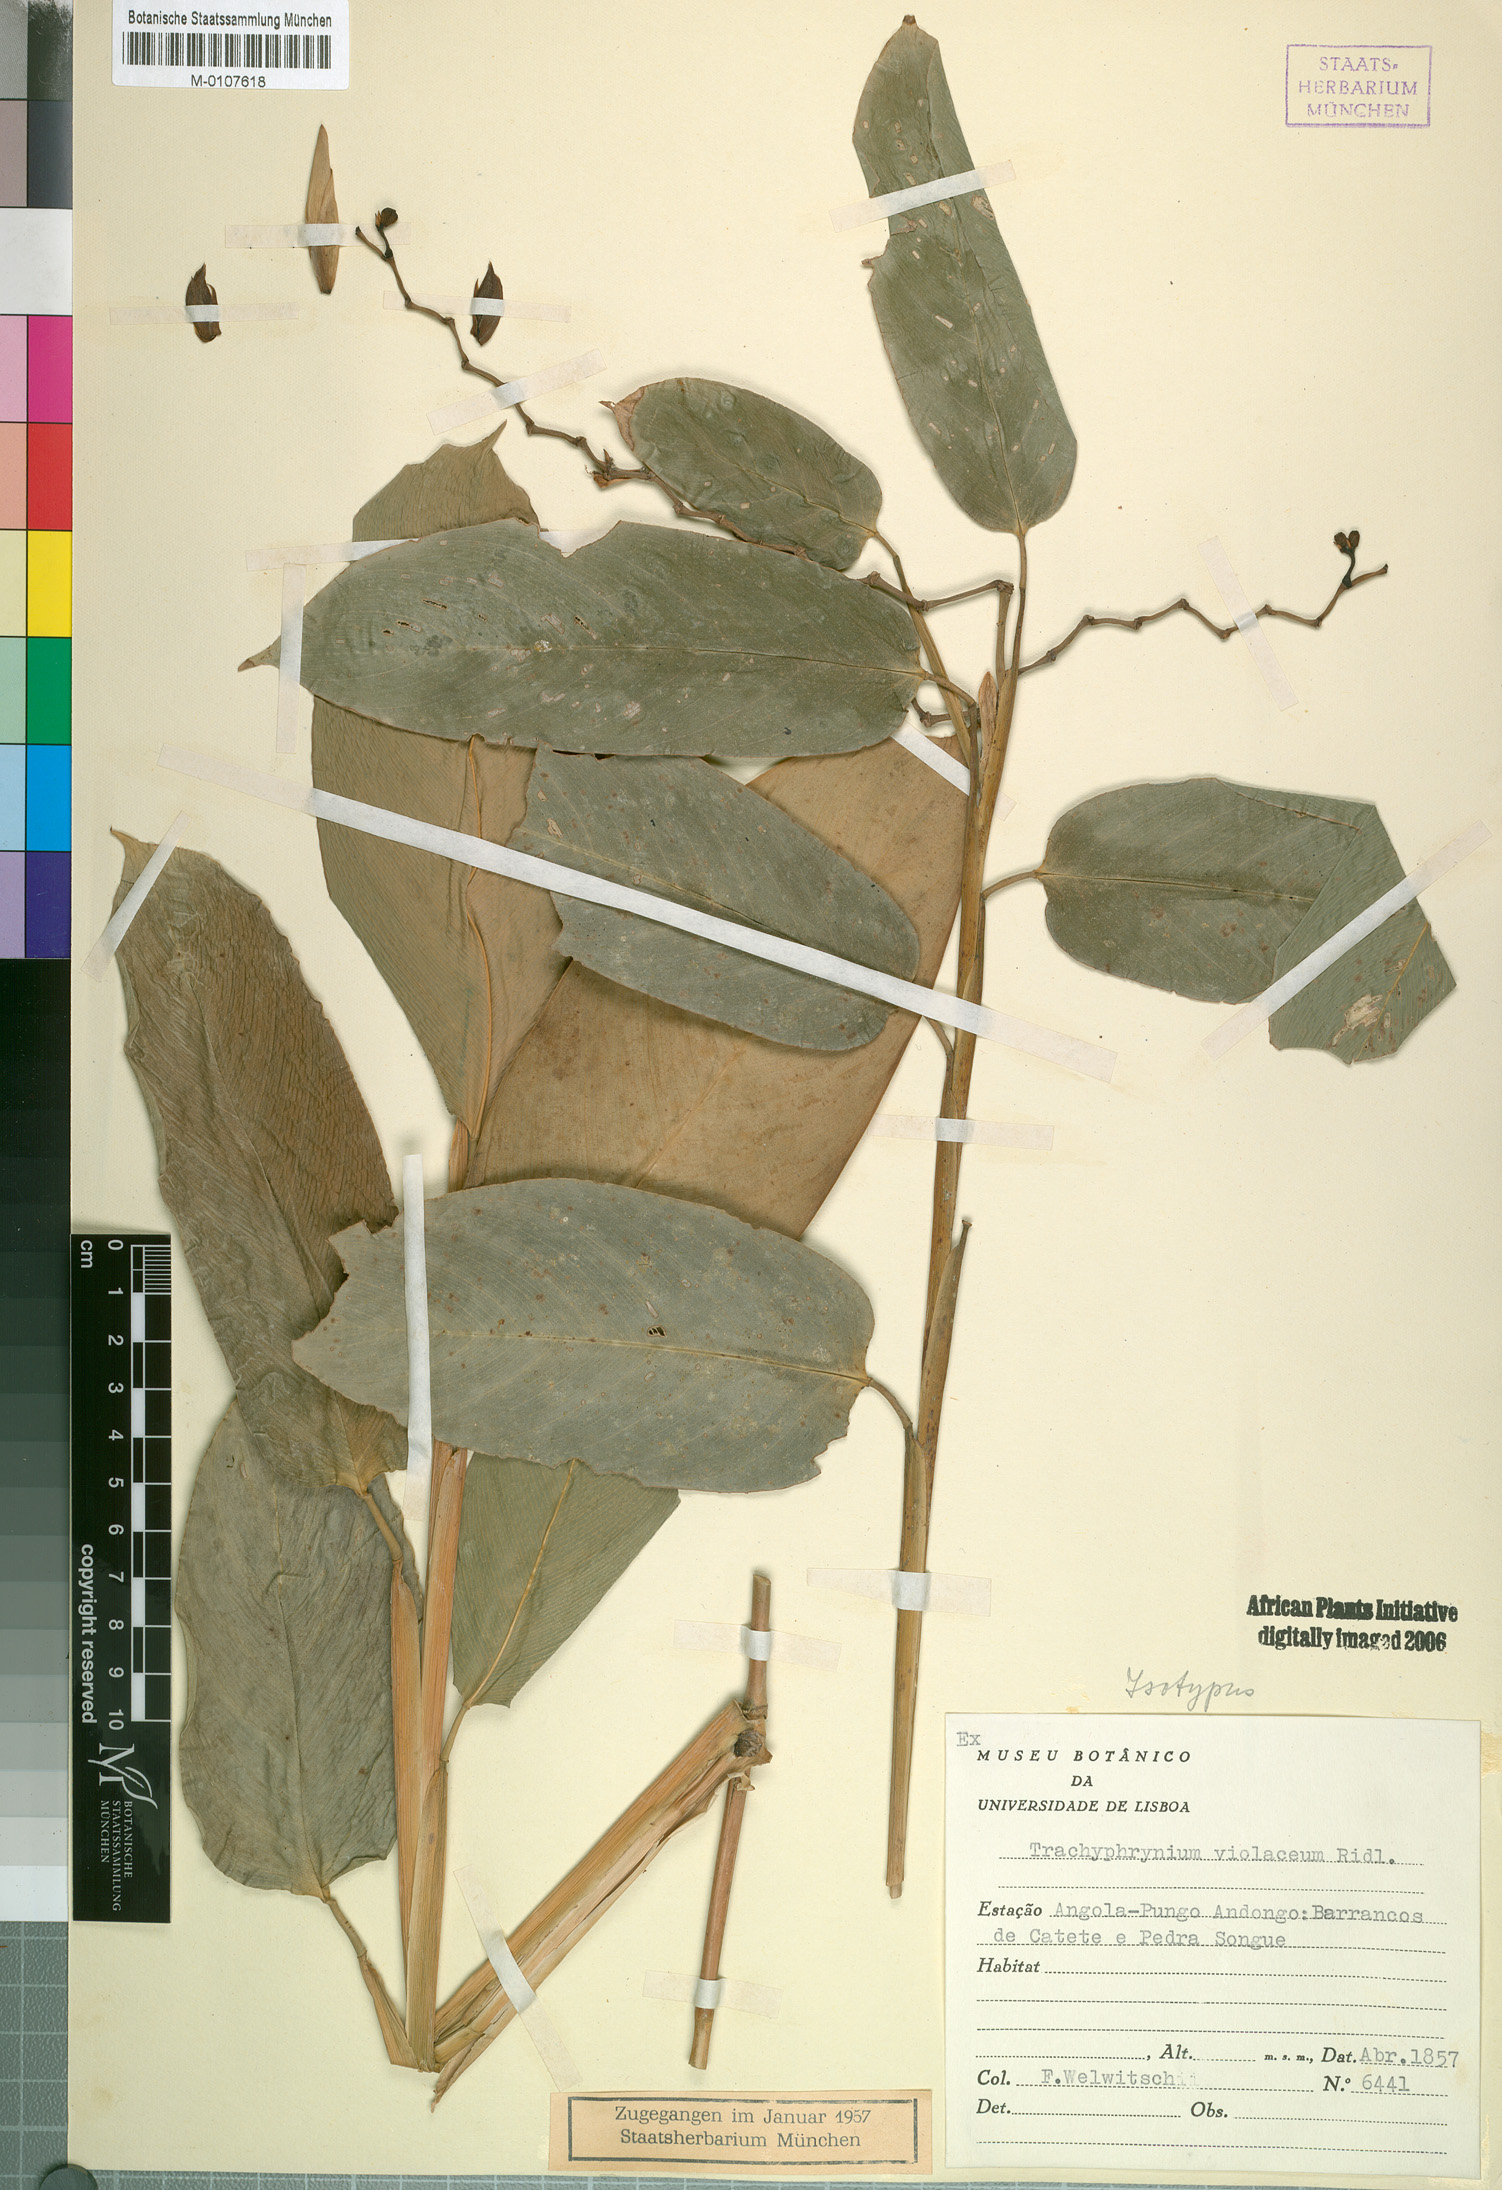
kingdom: Plantae
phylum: Tracheophyta
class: Liliopsida
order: Zingiberales
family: Marantaceae
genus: Hypselodelphys
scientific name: Hypselodelphys violacea
